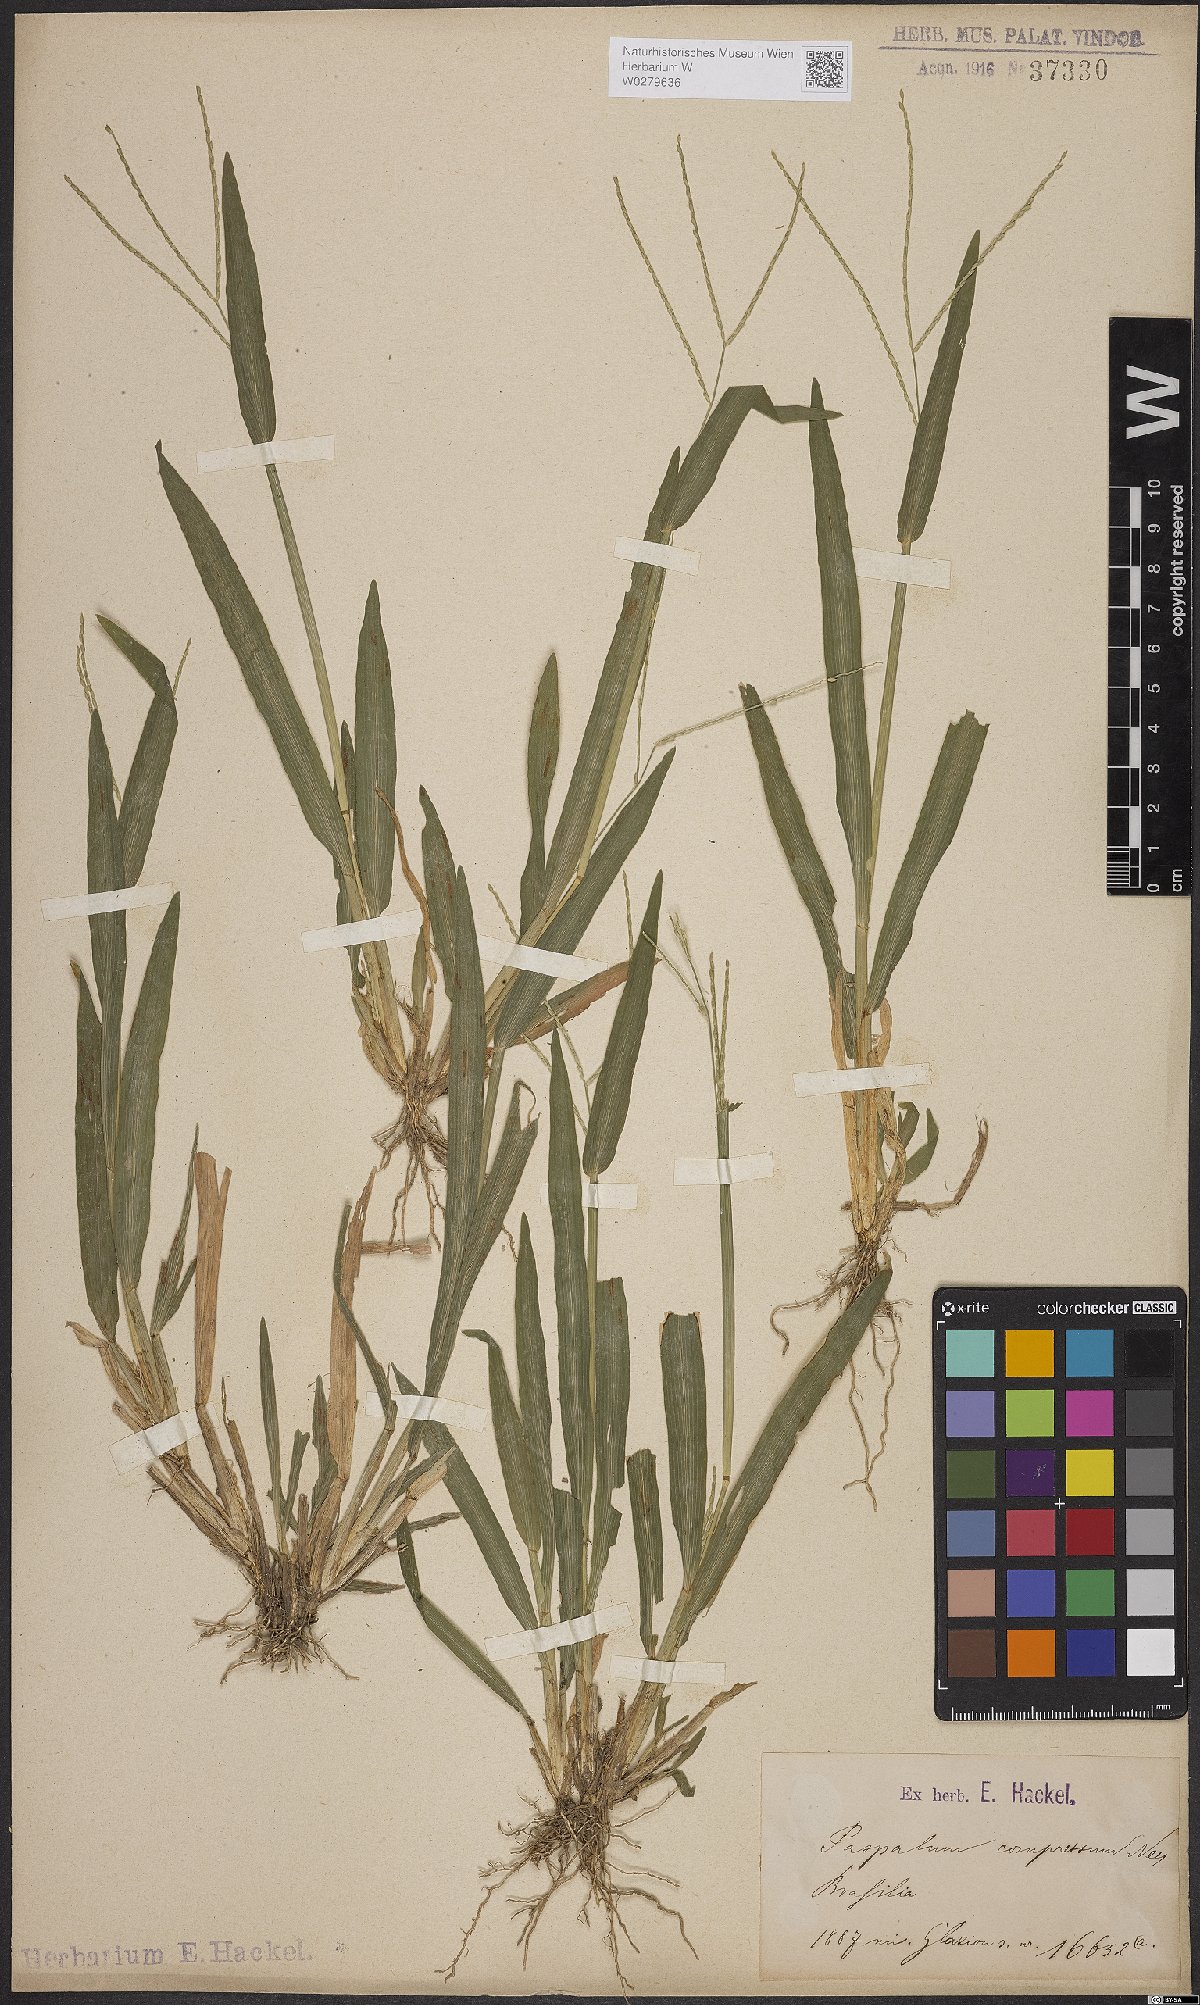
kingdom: Plantae
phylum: Tracheophyta
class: Liliopsida
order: Poales
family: Poaceae
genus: Axonopus
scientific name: Axonopus compressus
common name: American carpet grass
